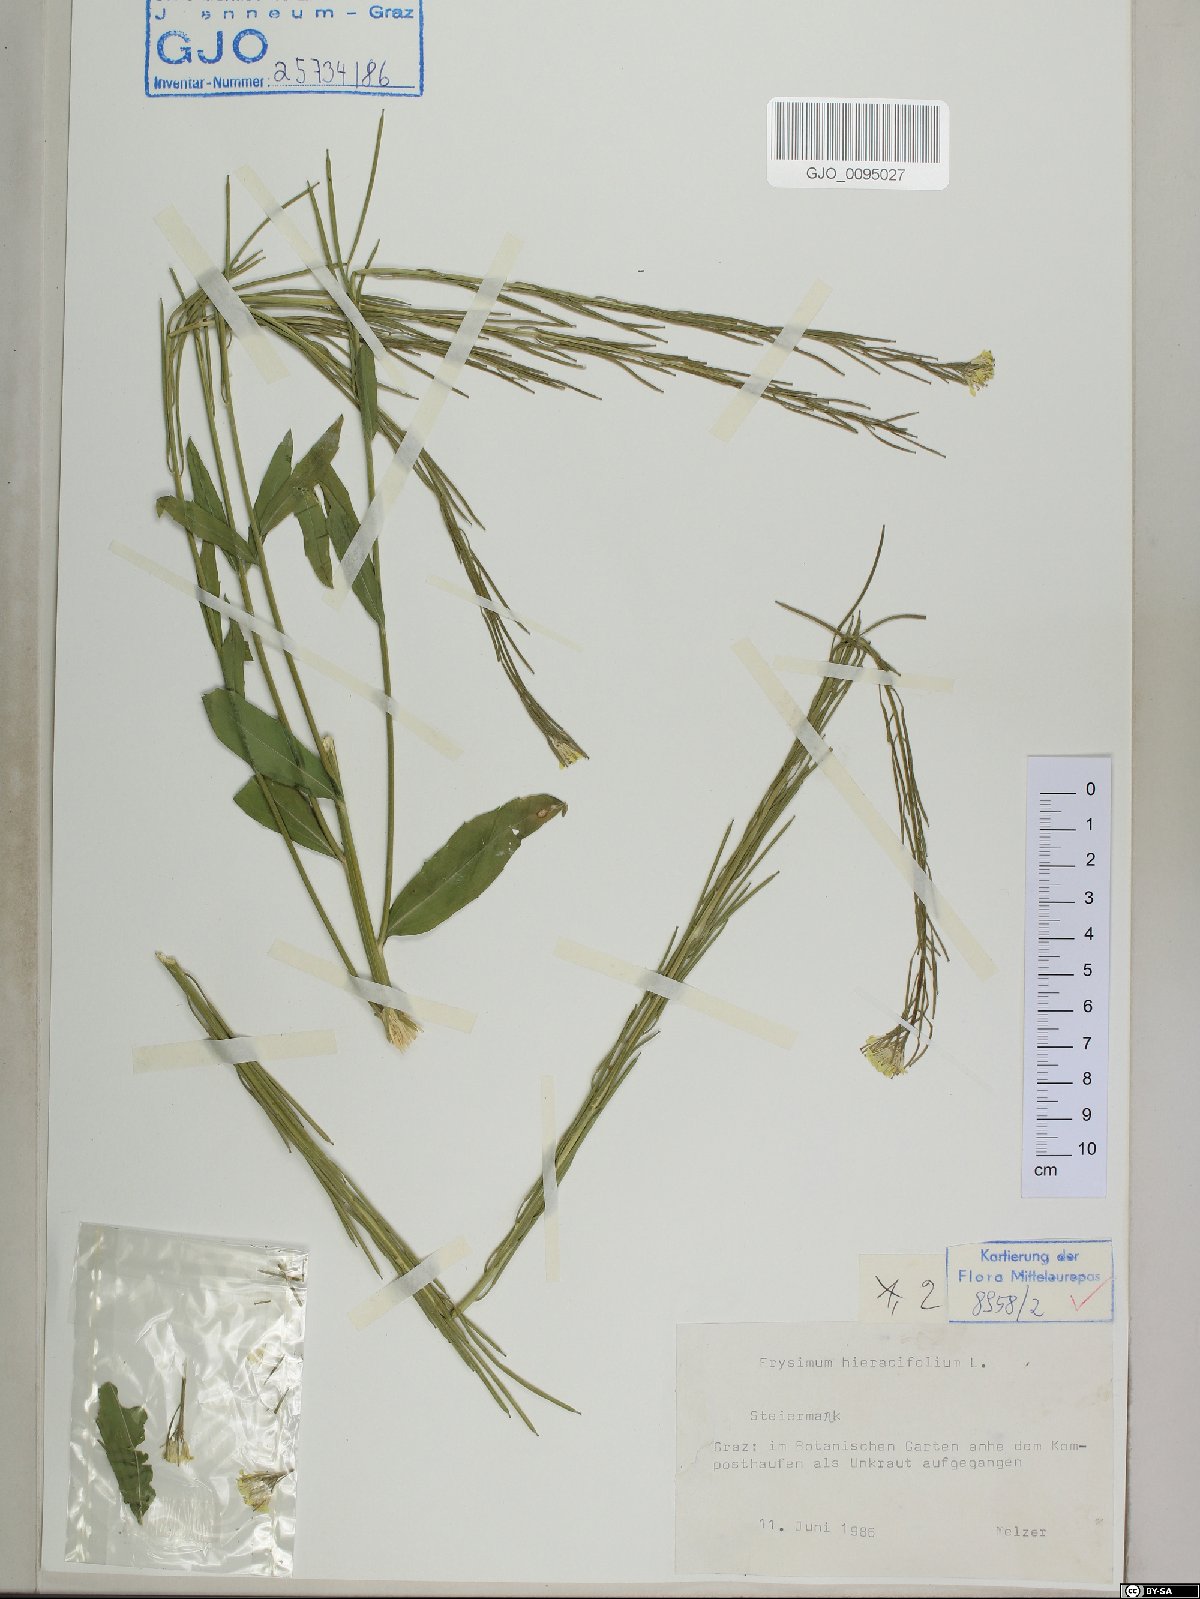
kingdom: Plantae
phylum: Tracheophyta
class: Magnoliopsida
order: Brassicales
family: Brassicaceae
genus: Erysimum
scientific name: Erysimum hieraciifolium
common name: European wallflower
